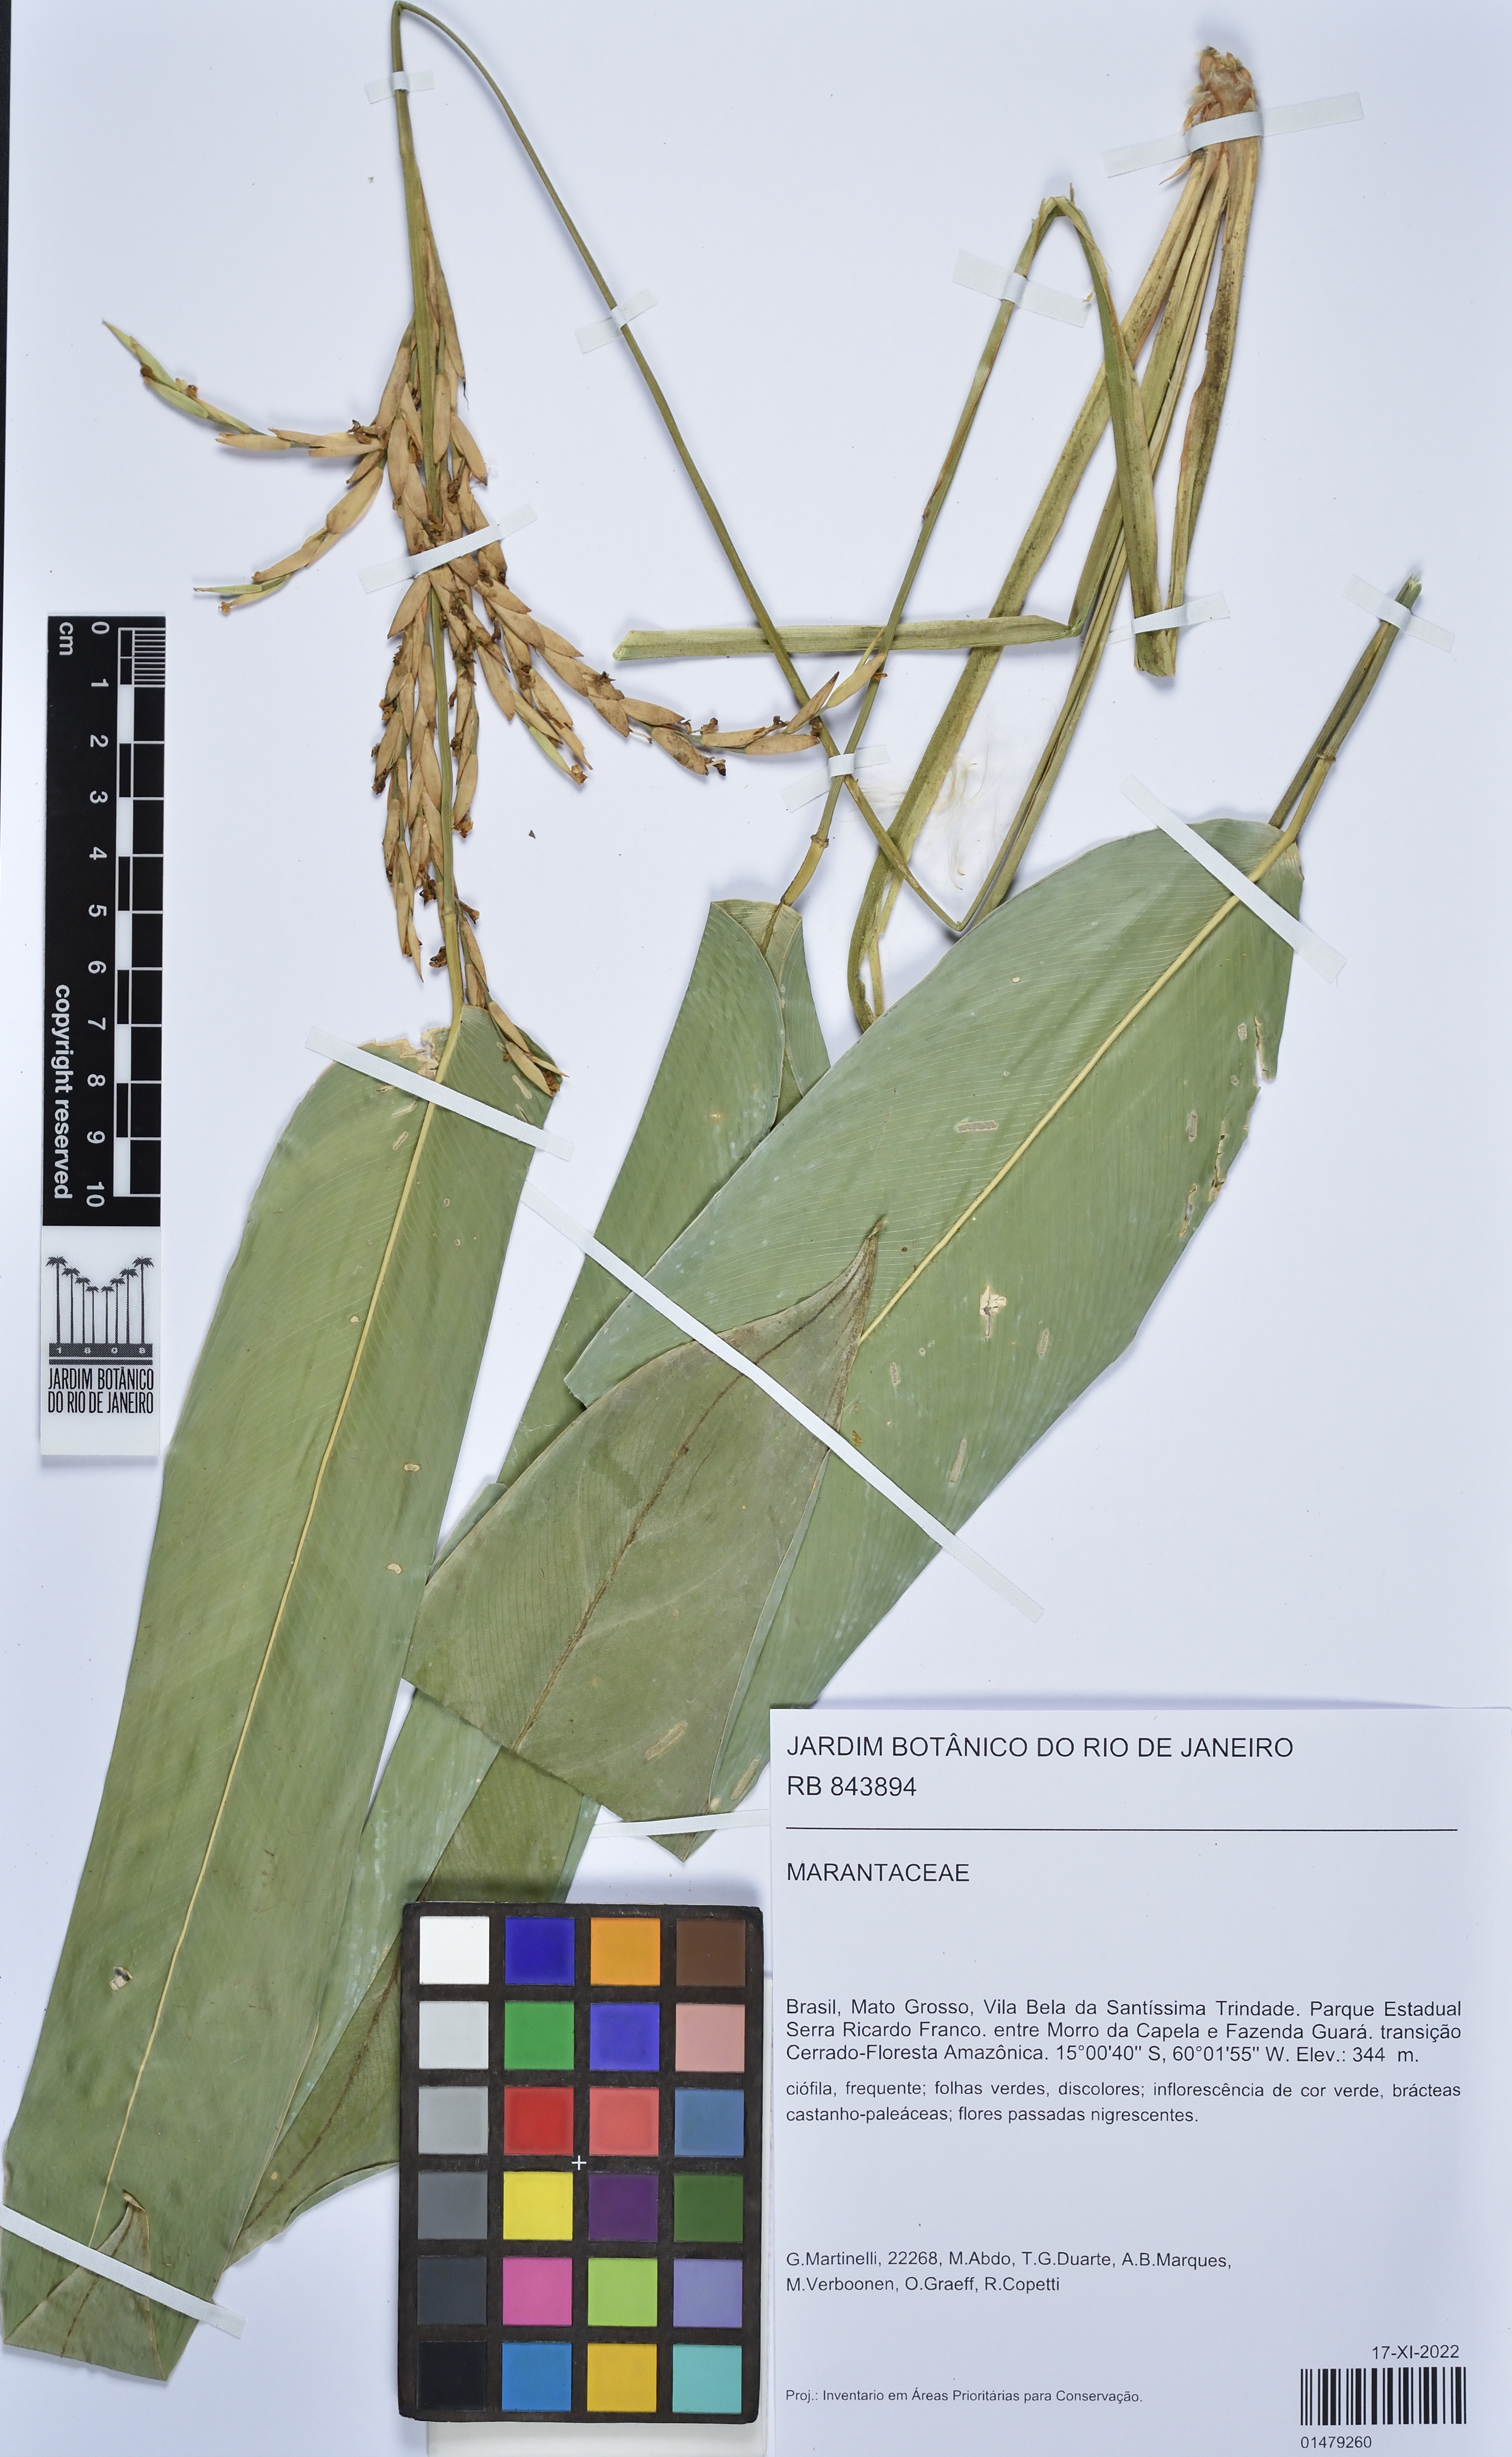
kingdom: Plantae
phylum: Tracheophyta
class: Liliopsida
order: Zingiberales
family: Marantaceae
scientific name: Marantaceae
